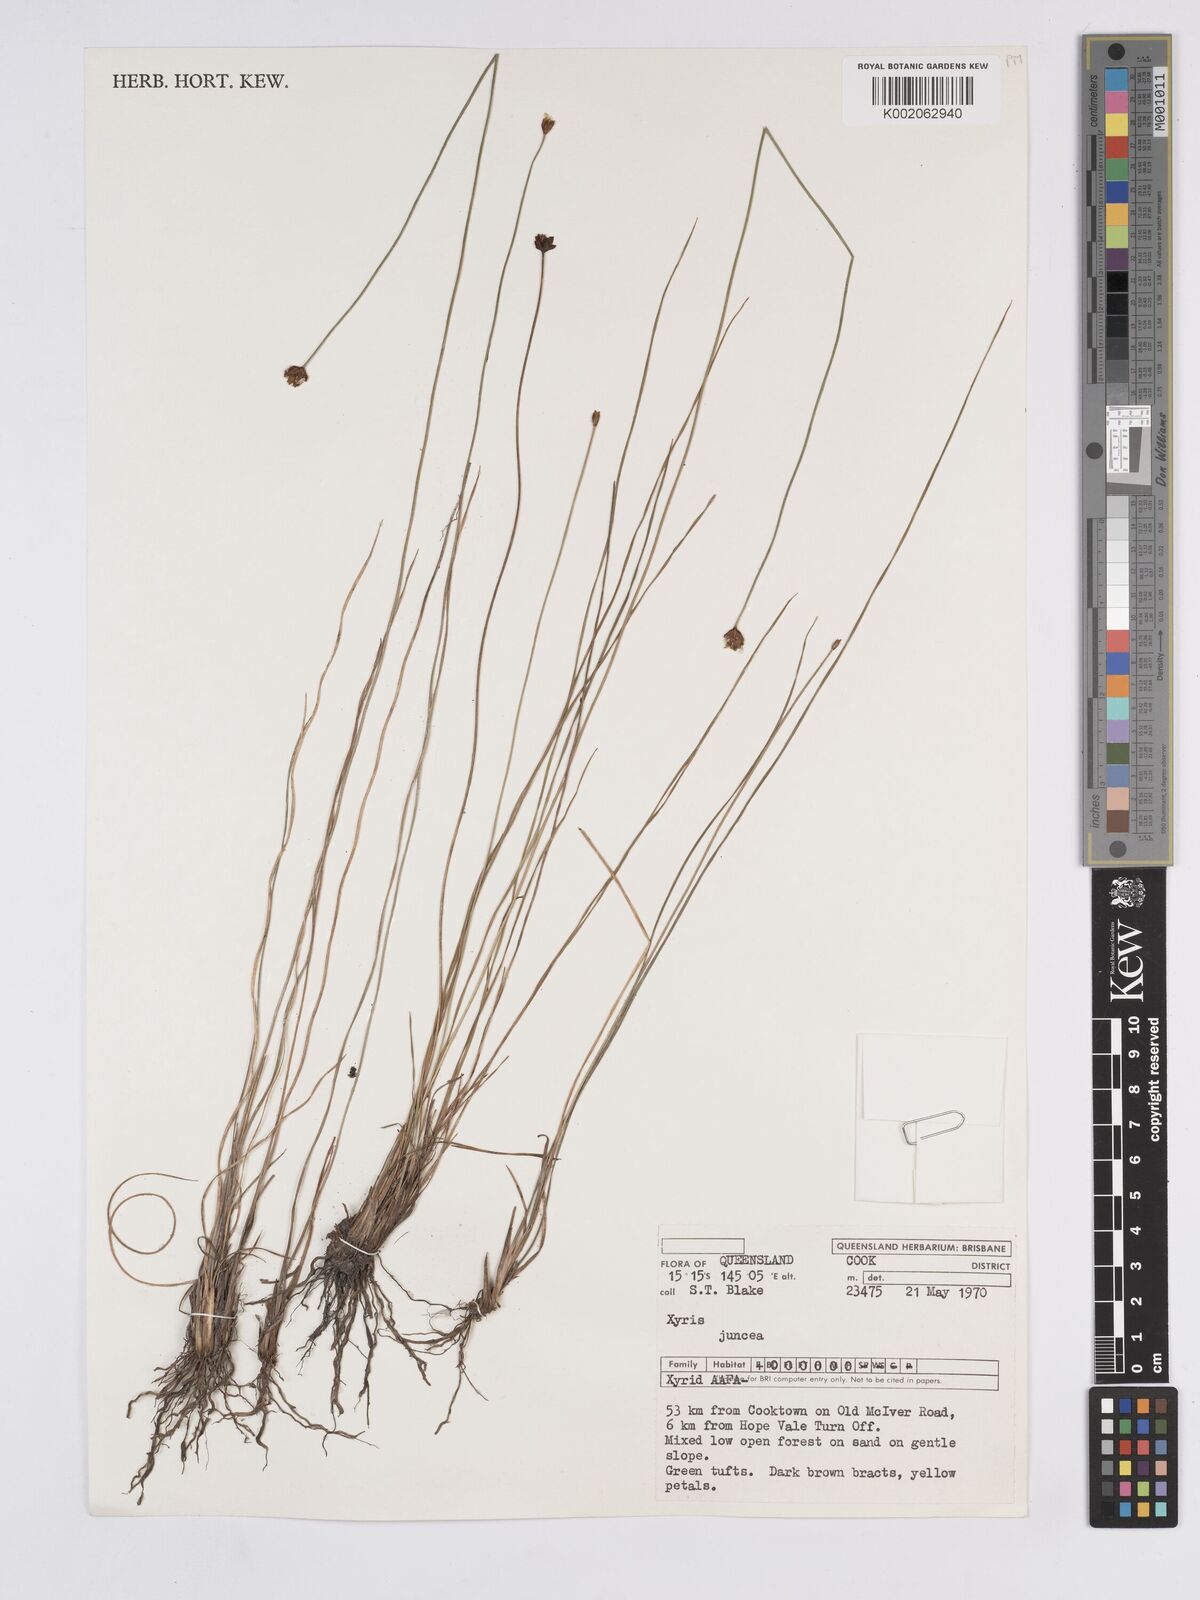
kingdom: Plantae
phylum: Tracheophyta
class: Liliopsida
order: Poales
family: Xyridaceae
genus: Xyris
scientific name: Xyris juncea
